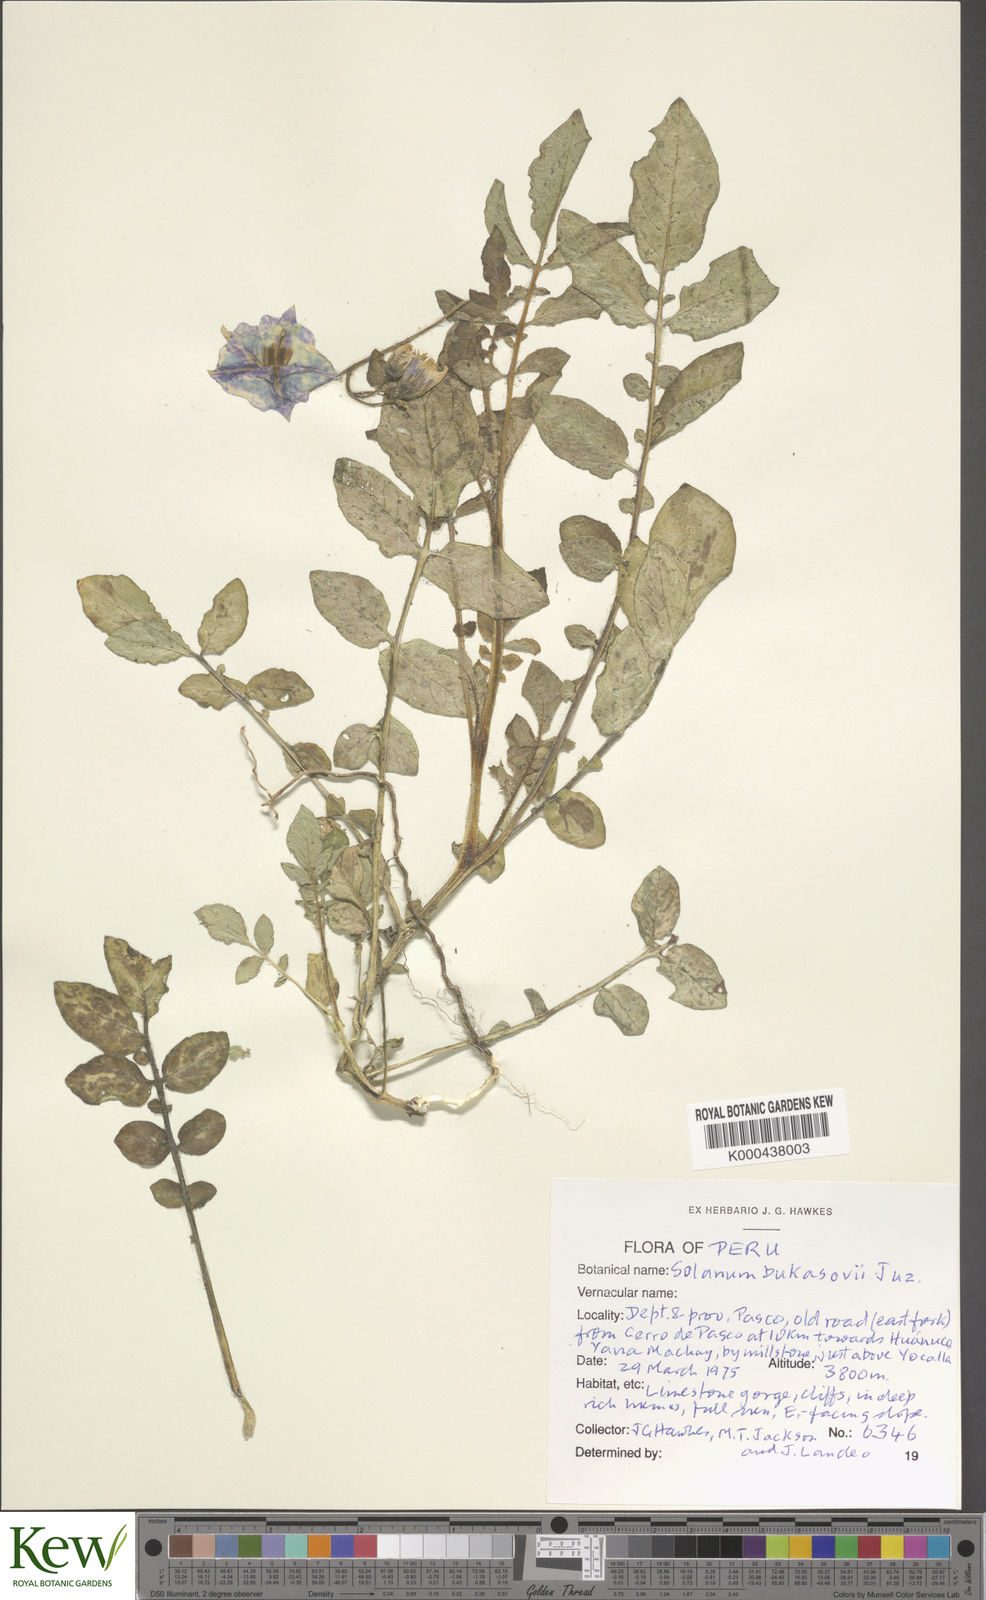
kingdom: Plantae
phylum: Tracheophyta
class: Magnoliopsida
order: Solanales
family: Solanaceae
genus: Solanum
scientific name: Solanum candolleanum
